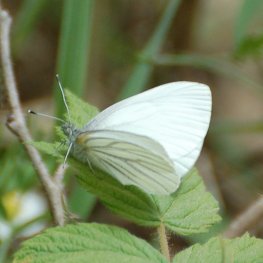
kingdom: Animalia
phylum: Arthropoda
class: Insecta
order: Lepidoptera
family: Pieridae
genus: Pieris
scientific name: Pieris oleracea
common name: Mustard White
